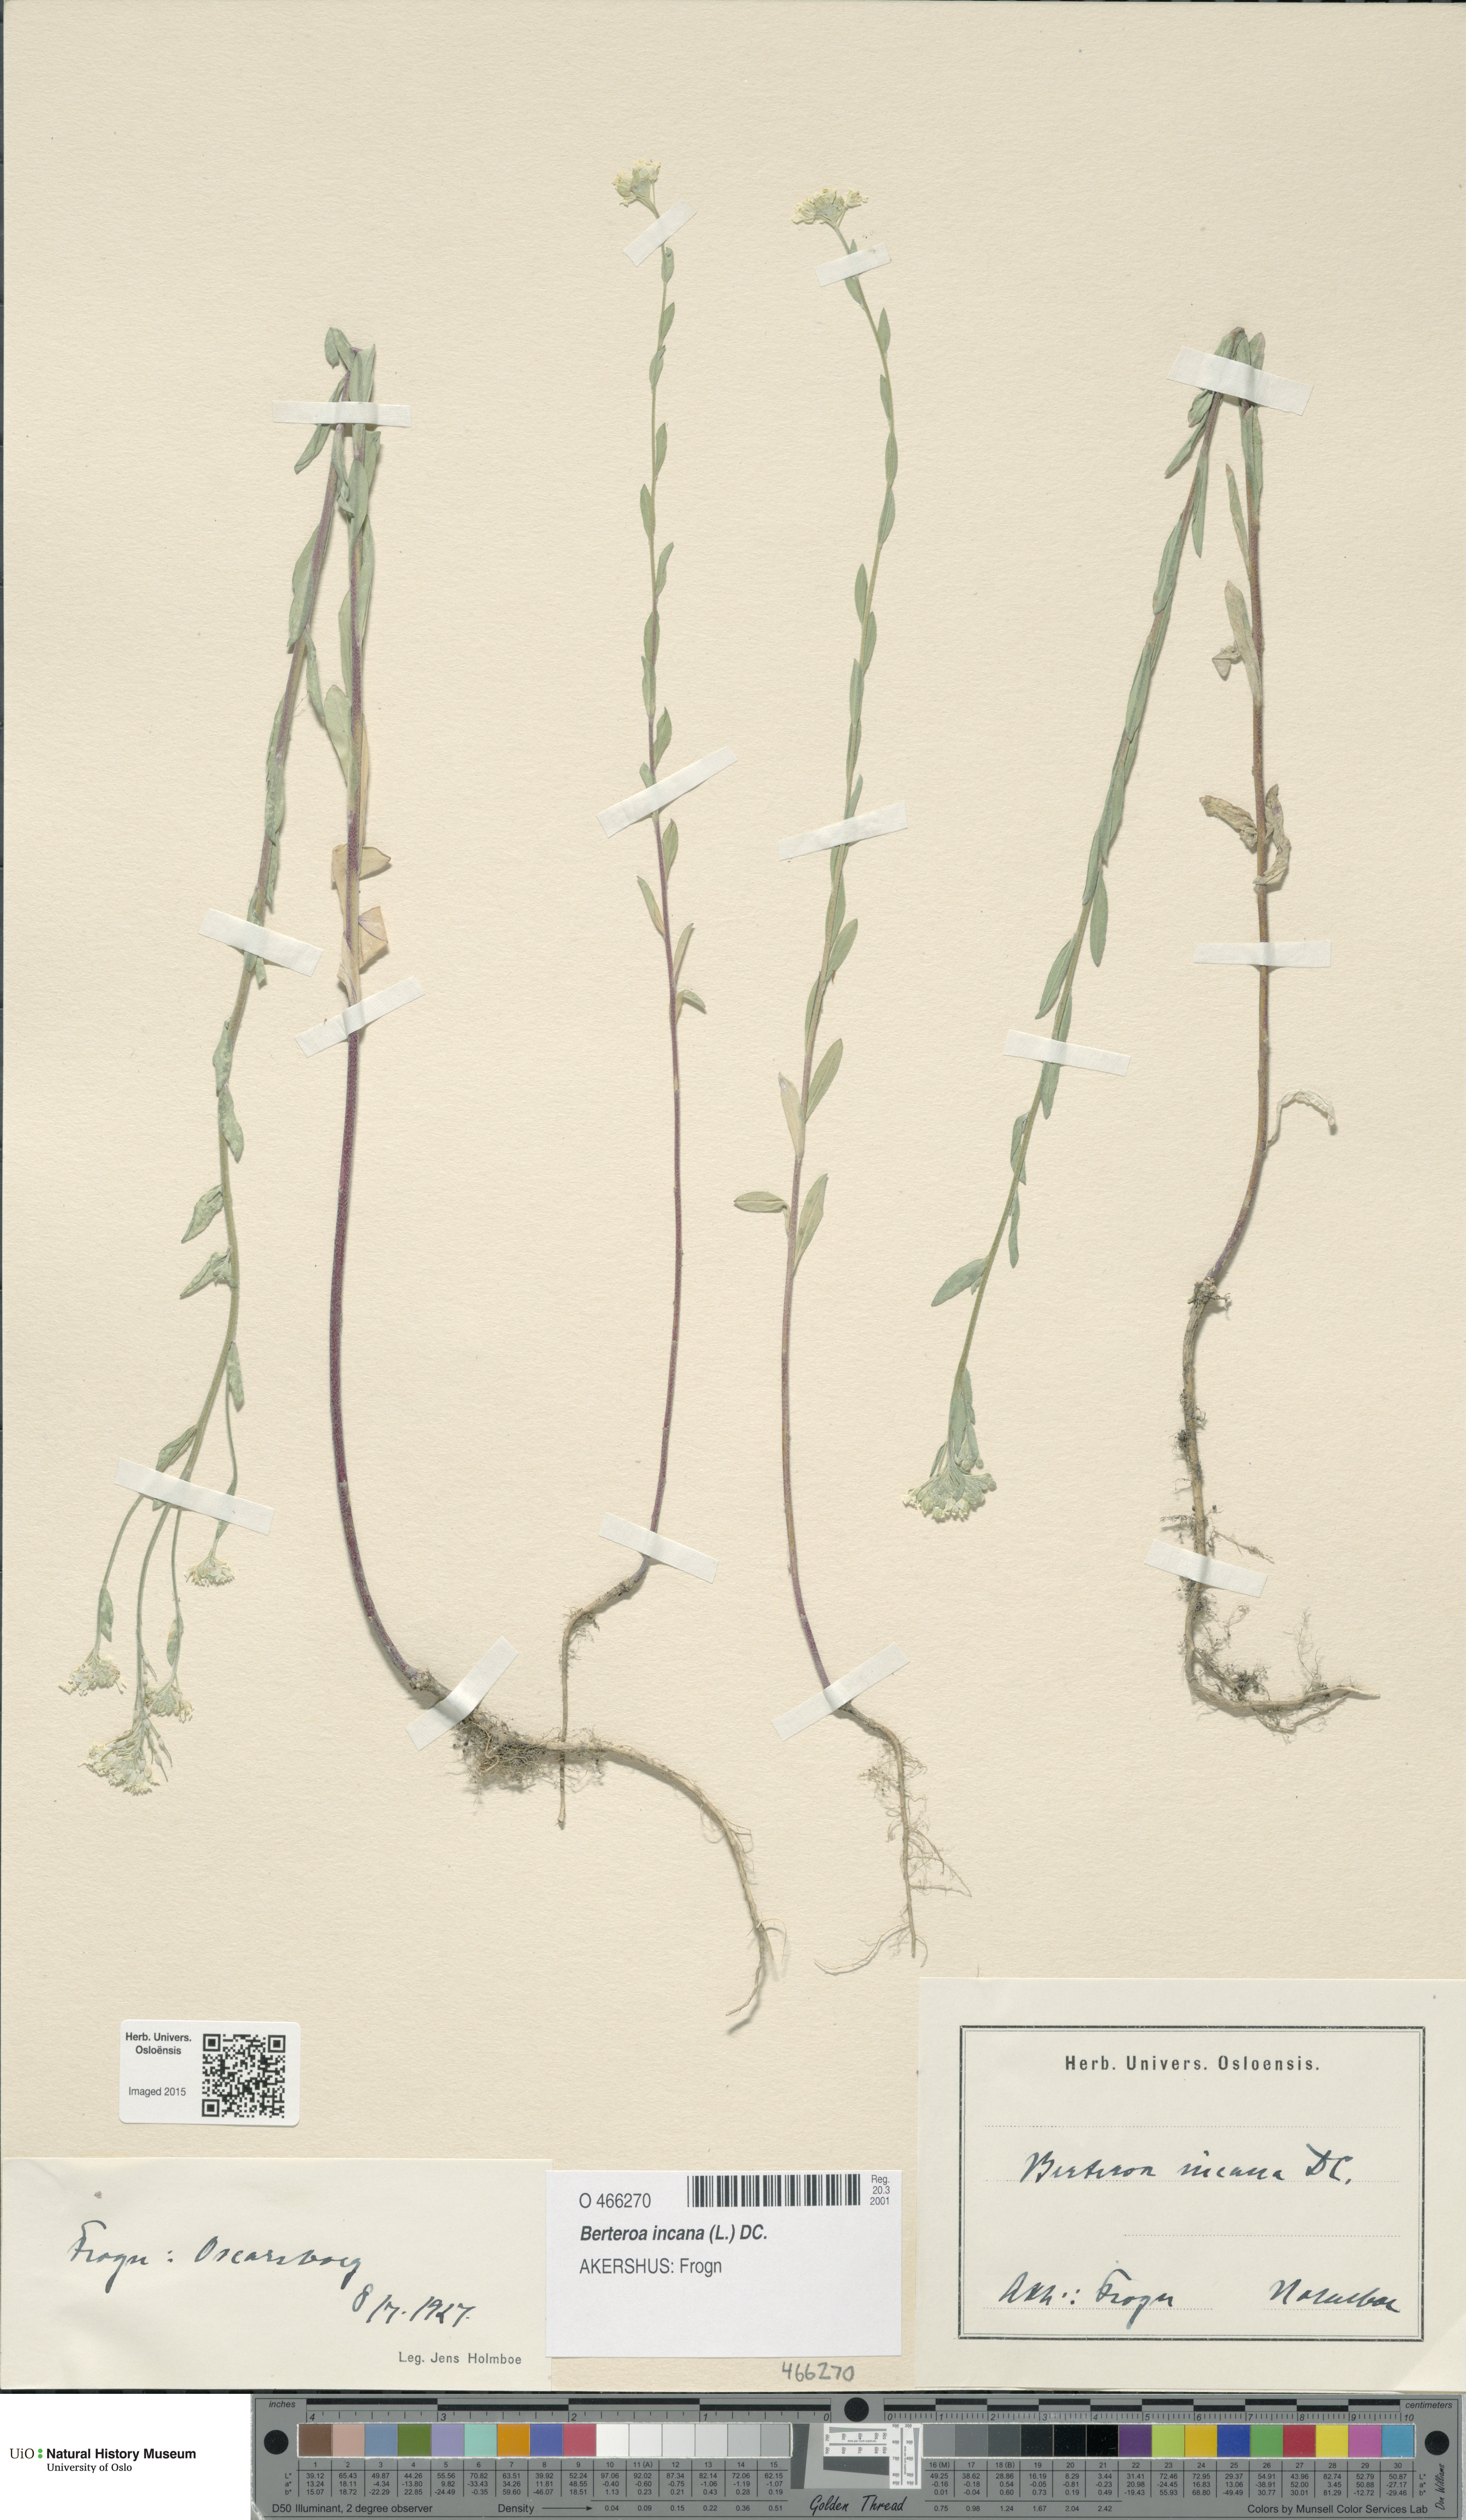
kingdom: Plantae
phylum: Tracheophyta
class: Magnoliopsida
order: Brassicales
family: Brassicaceae
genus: Berteroa
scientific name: Berteroa incana
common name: Hoary alison
